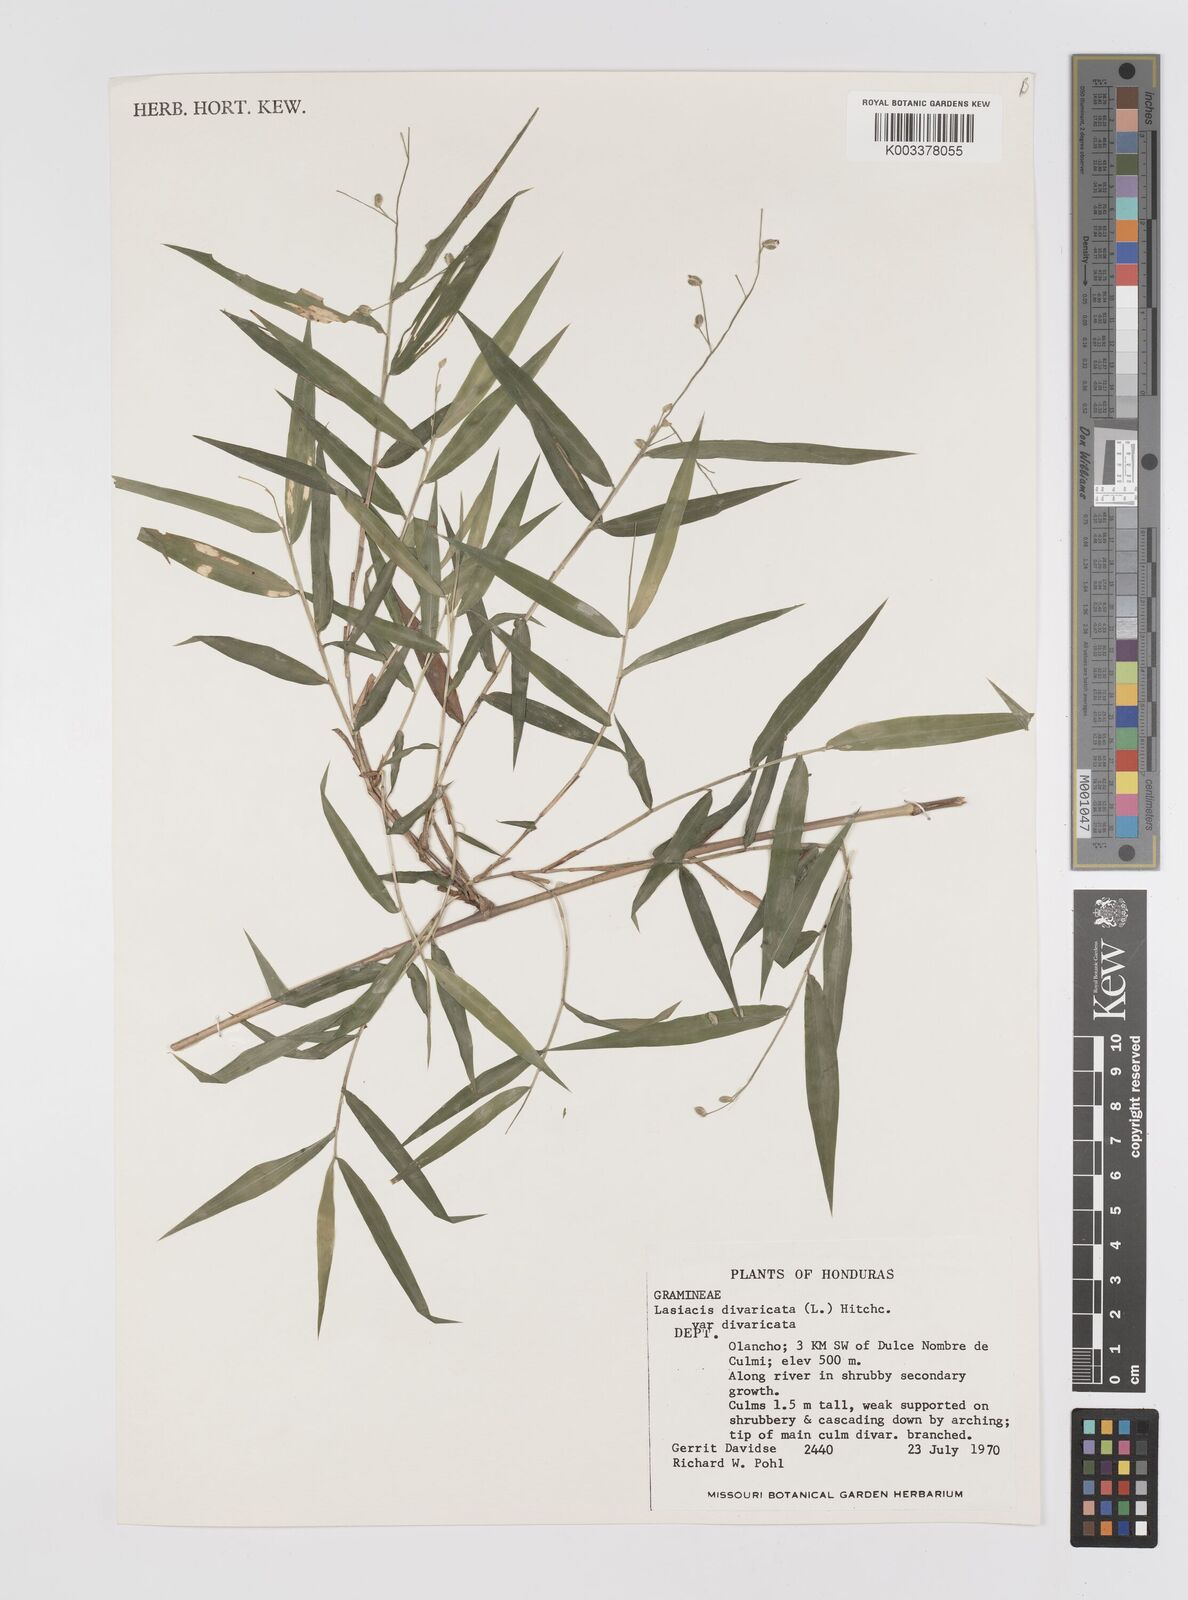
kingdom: Plantae
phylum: Tracheophyta
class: Liliopsida
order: Poales
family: Poaceae
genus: Lasiacis
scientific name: Lasiacis divaricata
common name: Smallcane
